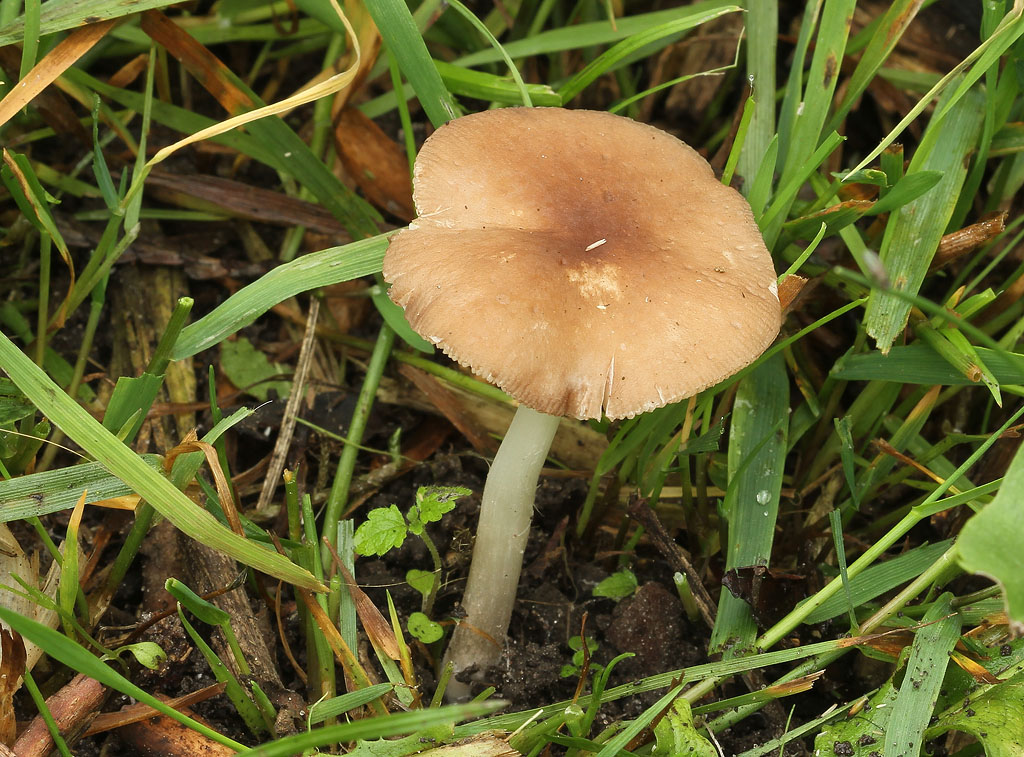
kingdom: Fungi
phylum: Basidiomycota
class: Agaricomycetes
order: Agaricales
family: Pluteaceae
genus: Pluteus
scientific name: Pluteus
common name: pudret skærmhat
